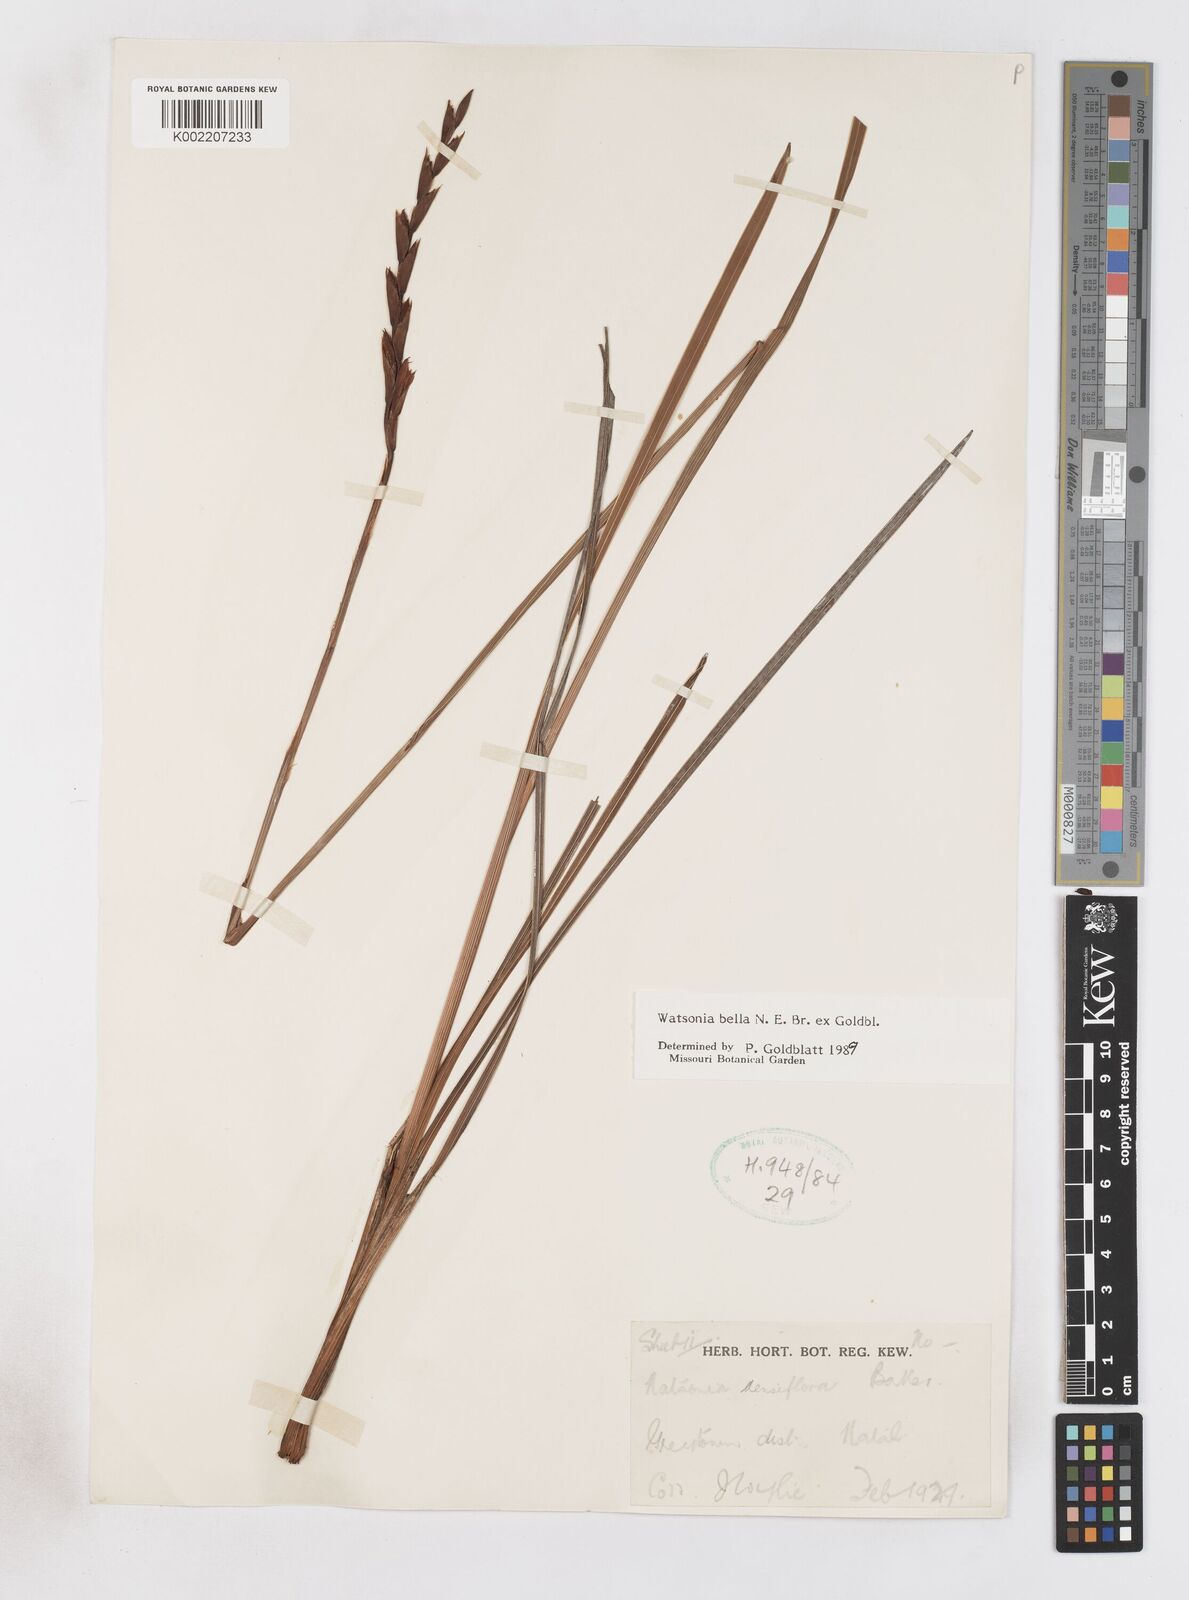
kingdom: Plantae
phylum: Tracheophyta
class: Liliopsida
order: Asparagales
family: Iridaceae
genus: Watsonia
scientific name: Watsonia bella
